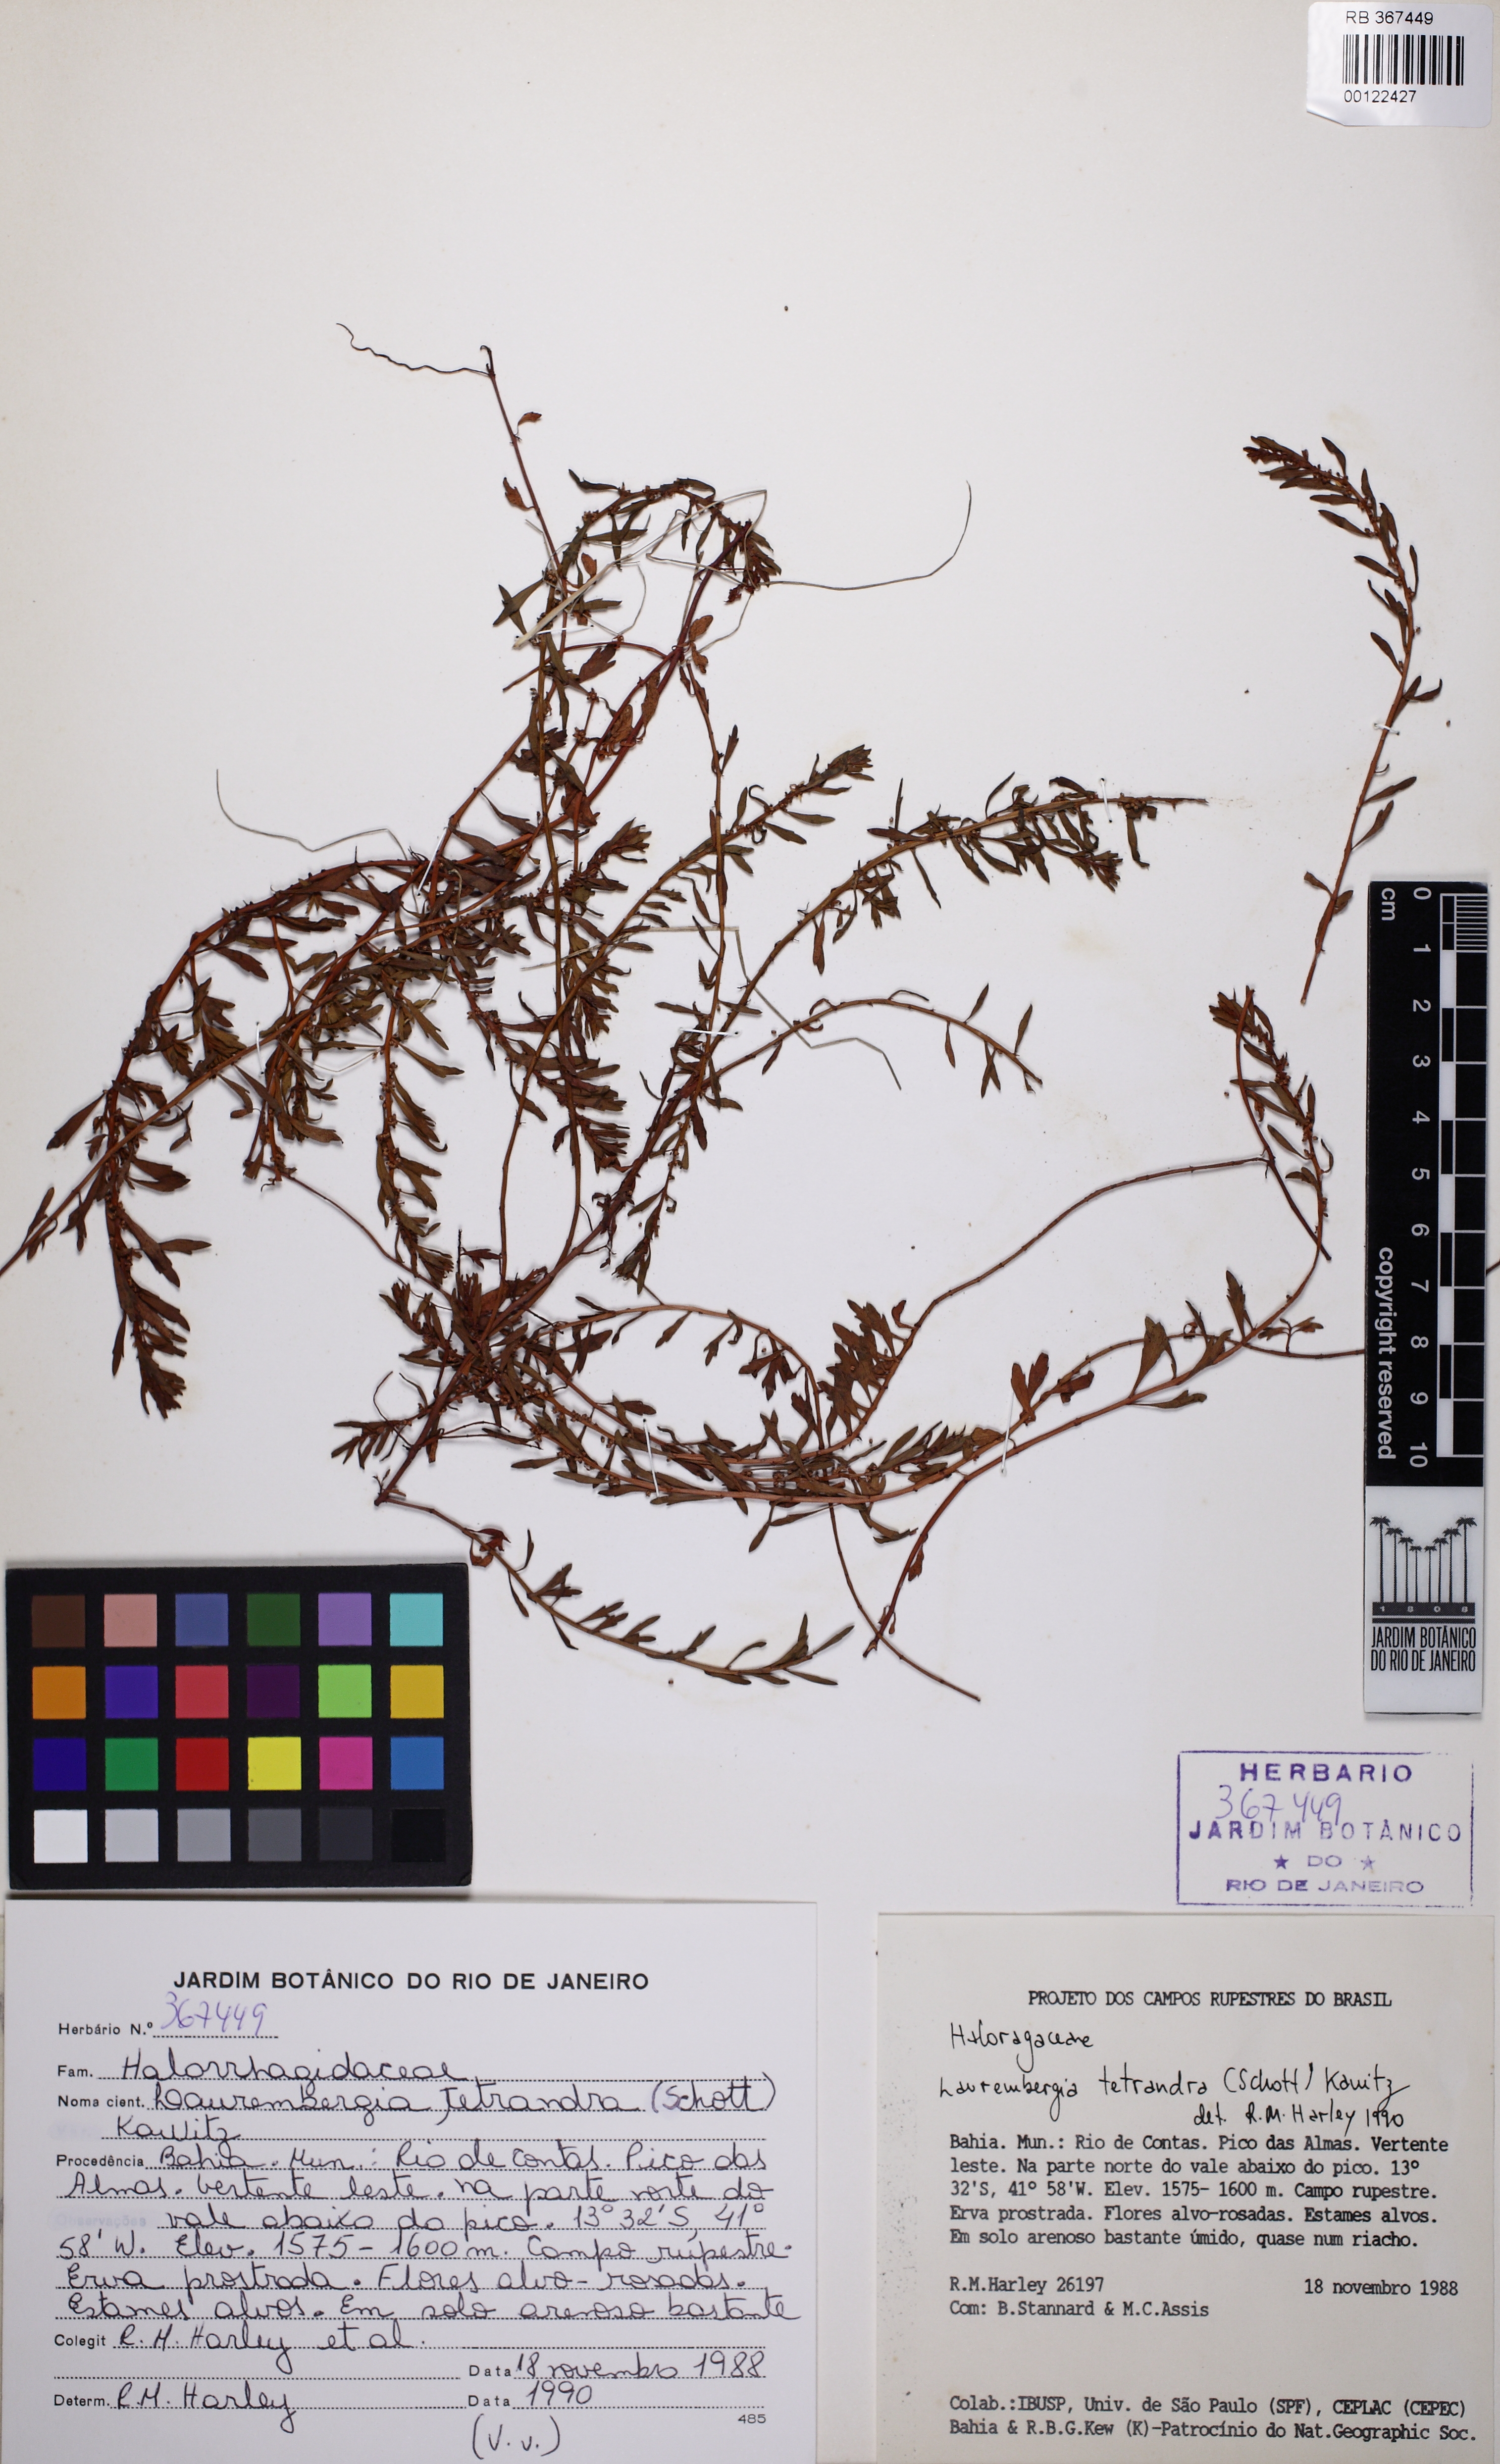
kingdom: Plantae
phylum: Tracheophyta
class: Magnoliopsida
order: Saxifragales
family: Haloragaceae
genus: Laurembergia
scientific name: Laurembergia tetrandra
